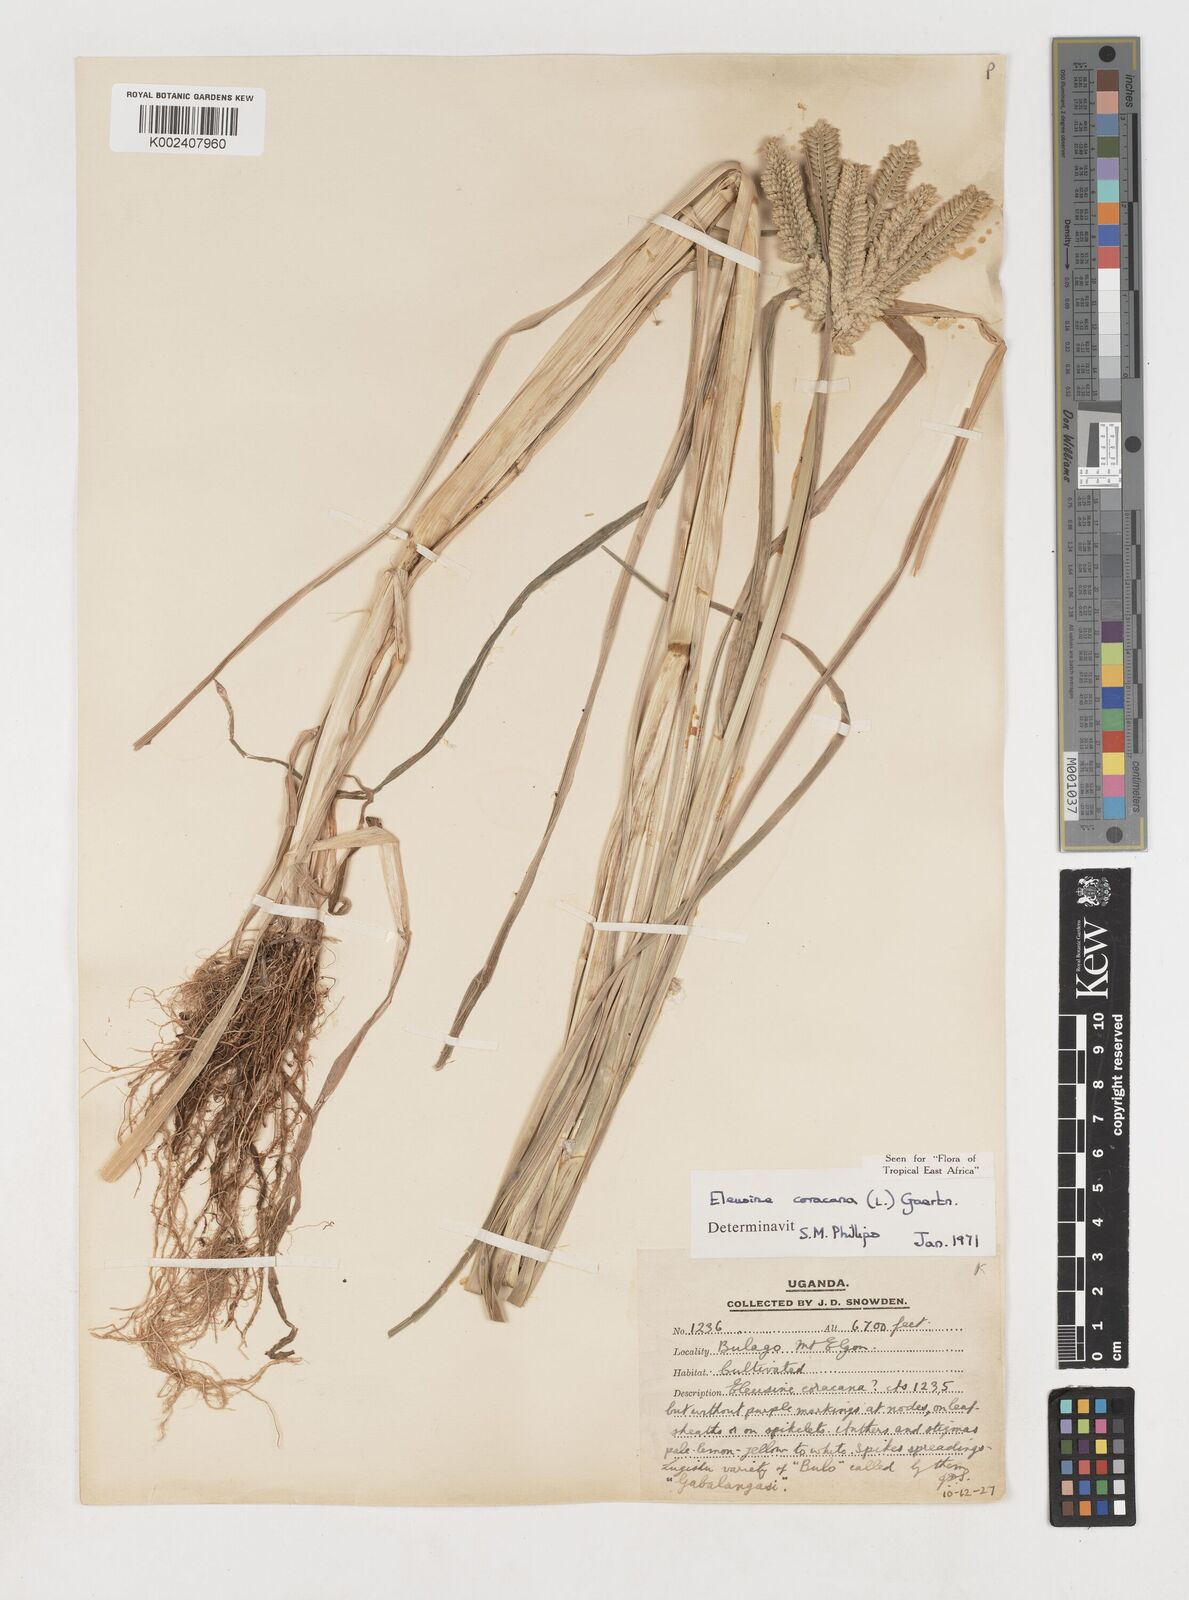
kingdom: Plantae
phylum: Tracheophyta
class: Liliopsida
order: Poales
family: Poaceae
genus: Eleusine
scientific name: Eleusine coracana
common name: Finger millet
